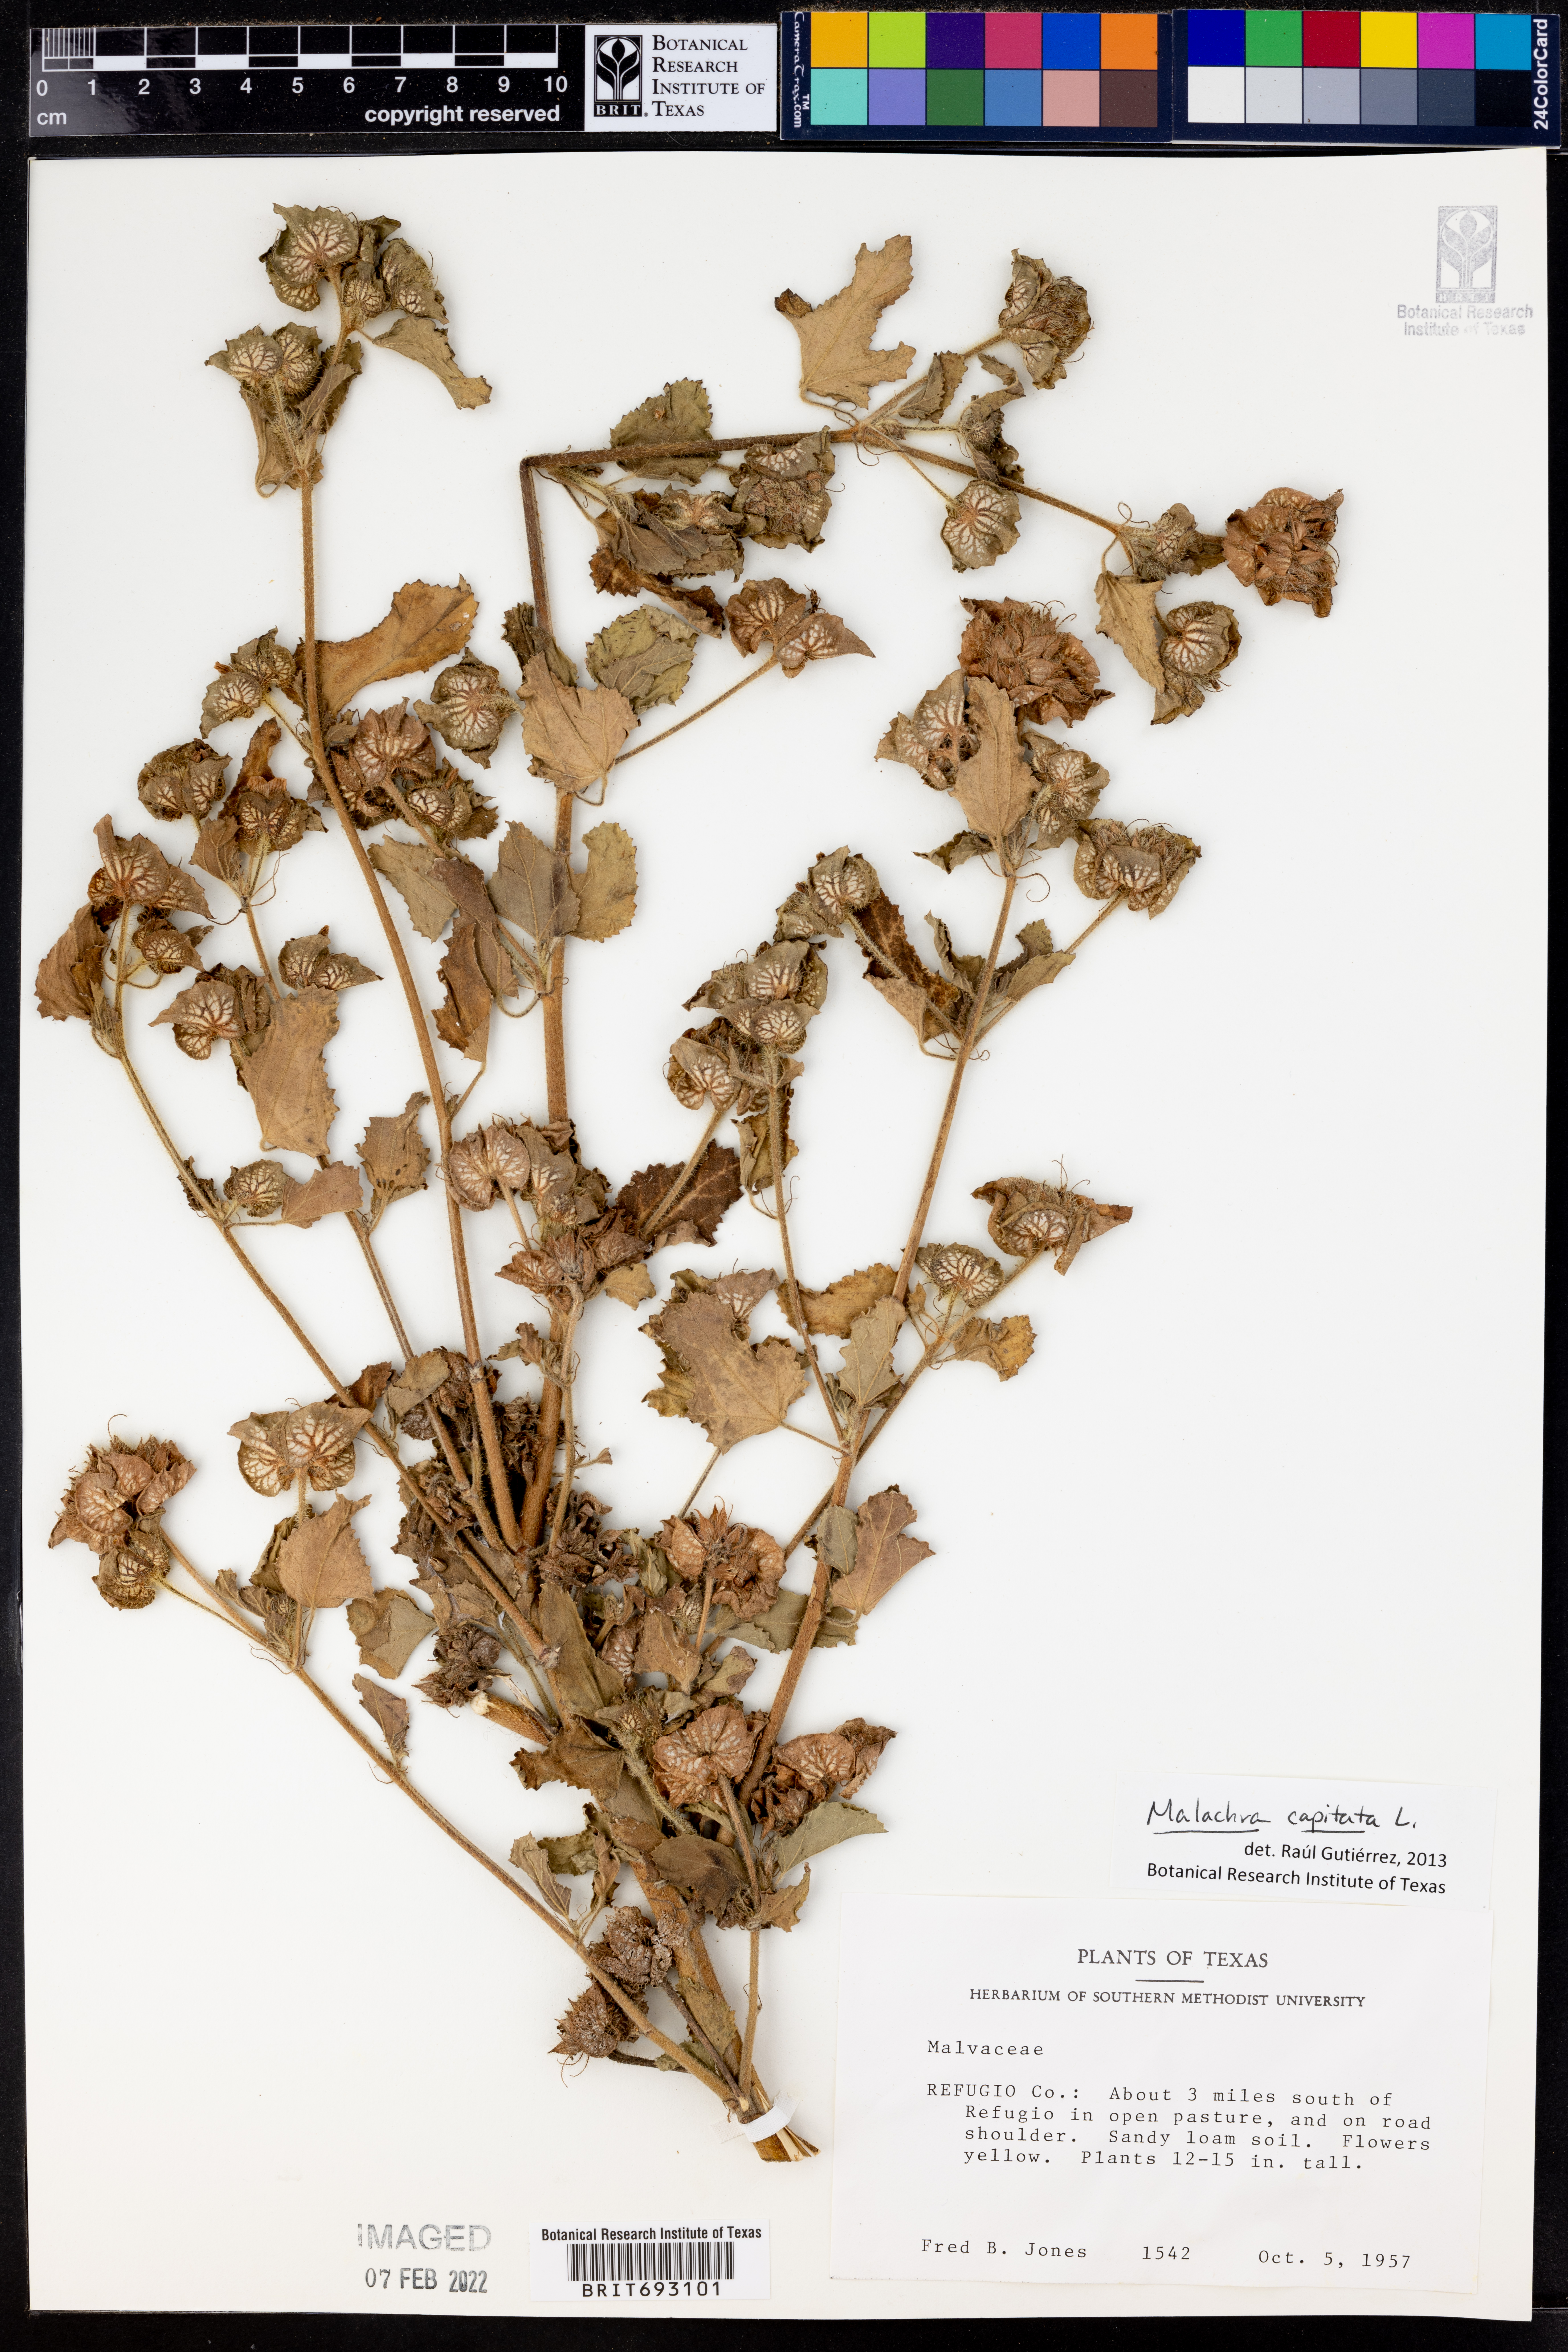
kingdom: Plantae
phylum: Tracheophyta
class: Magnoliopsida
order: Malvales
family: Malvaceae
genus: Malachra
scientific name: Malachra capitata
